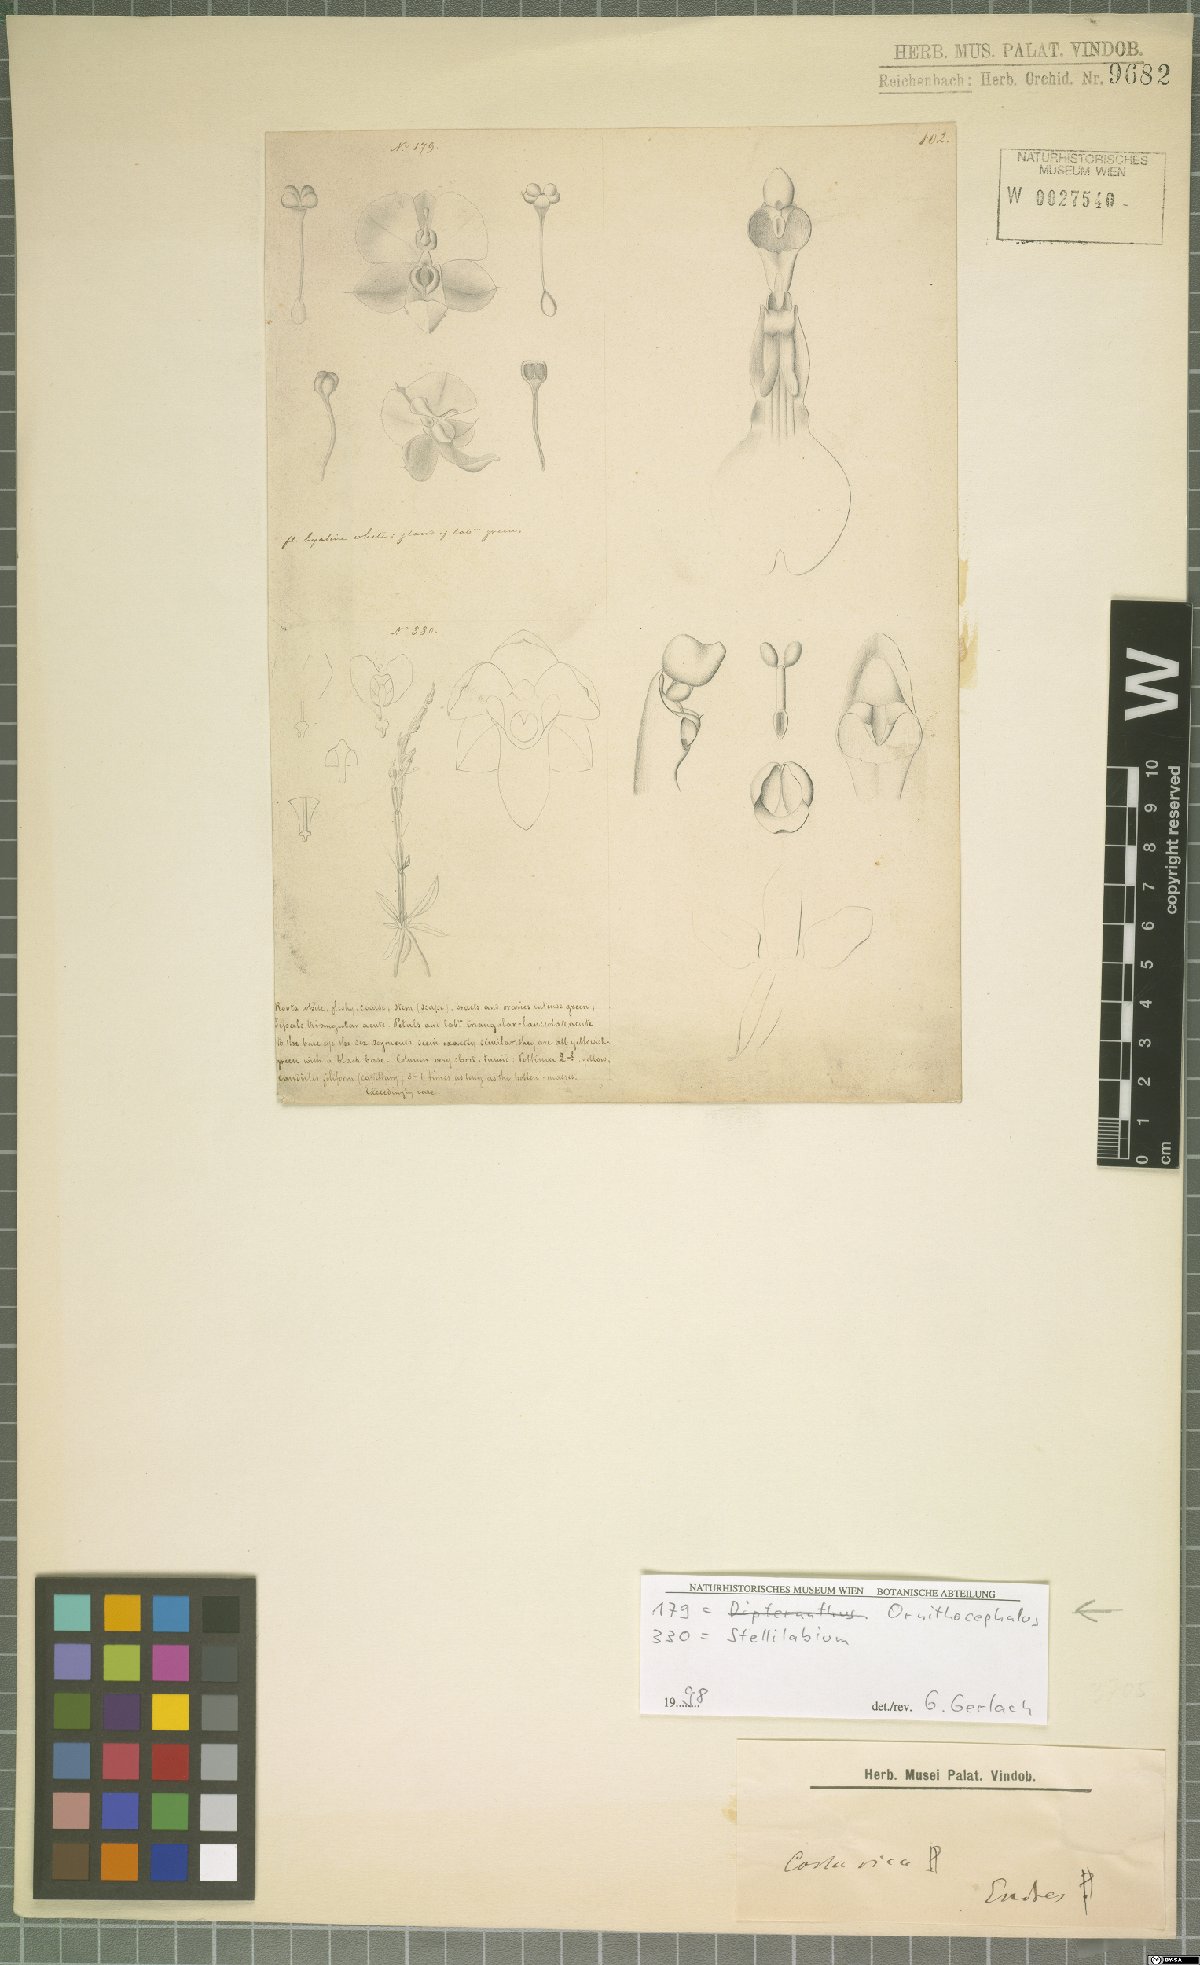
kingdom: Plantae
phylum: Tracheophyta
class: Liliopsida
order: Asparagales
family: Orchidaceae
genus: Ornithocephalus
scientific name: Ornithocephalus
